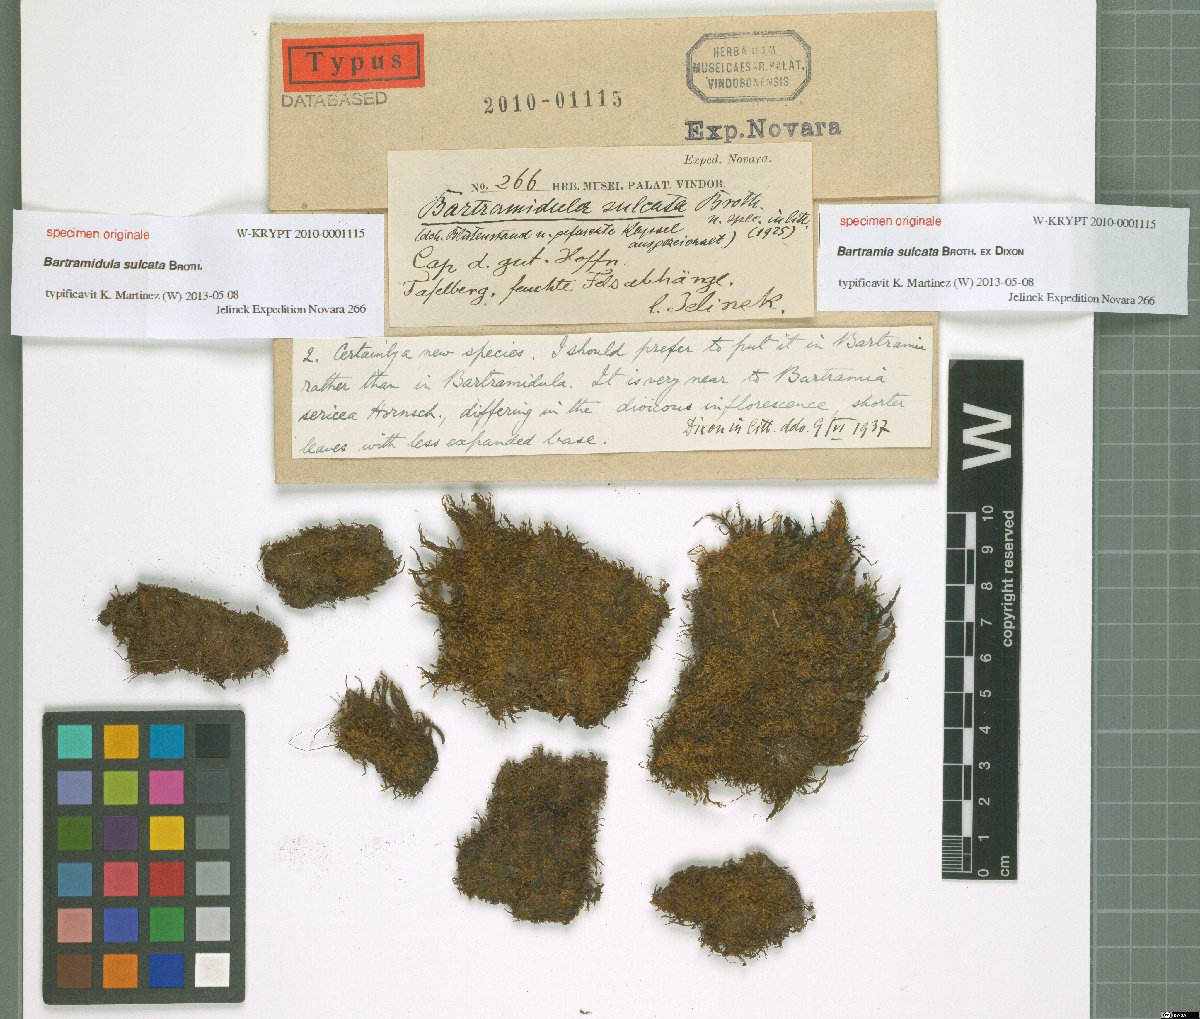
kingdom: Plantae
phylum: Bryophyta
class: Bryopsida
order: Bartramiales
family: Bartramiaceae
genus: Bartramidula
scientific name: Bartramidula
